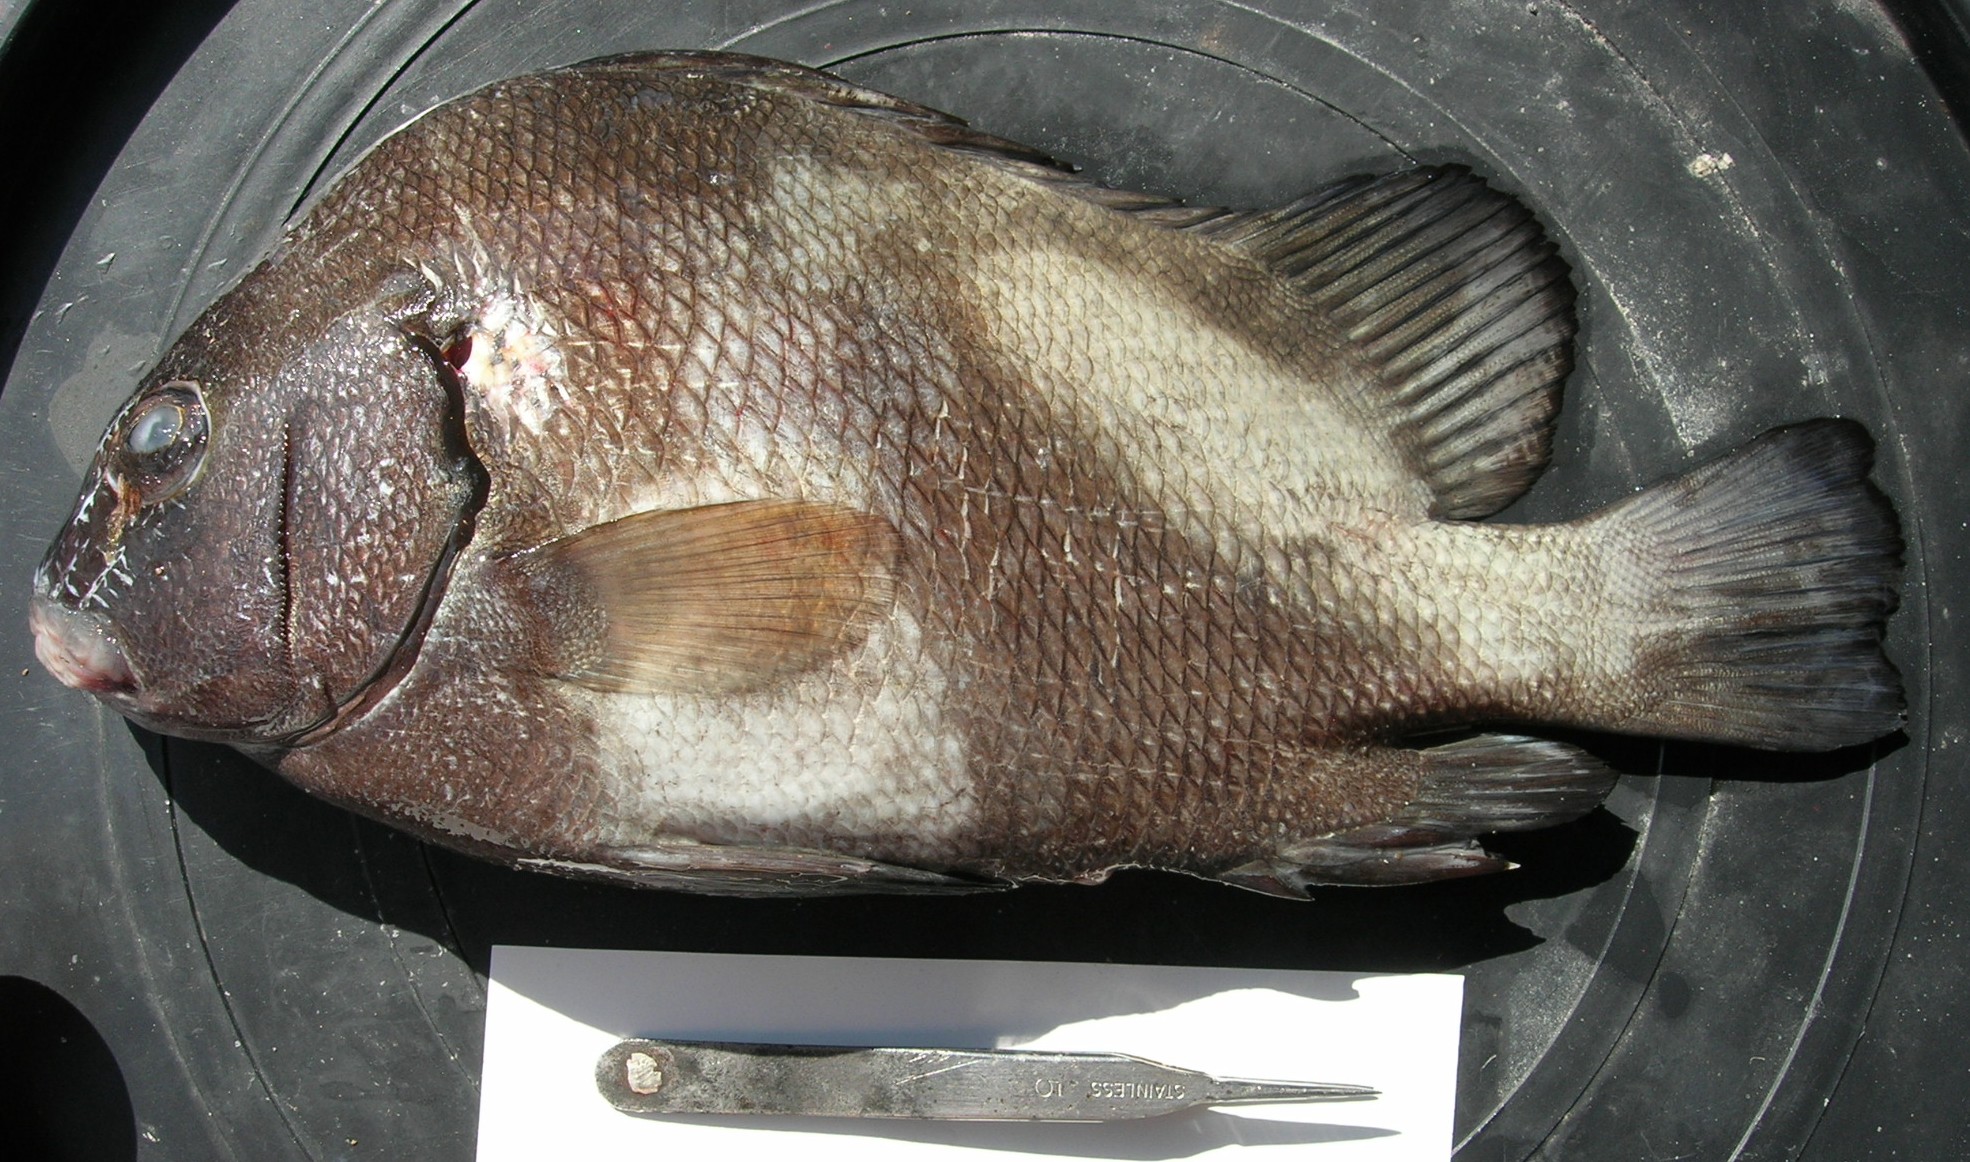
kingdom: Animalia
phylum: Chordata
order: Perciformes
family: Haemulidae
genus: Plectorhinchus
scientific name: Plectorhinchus gibbosus
